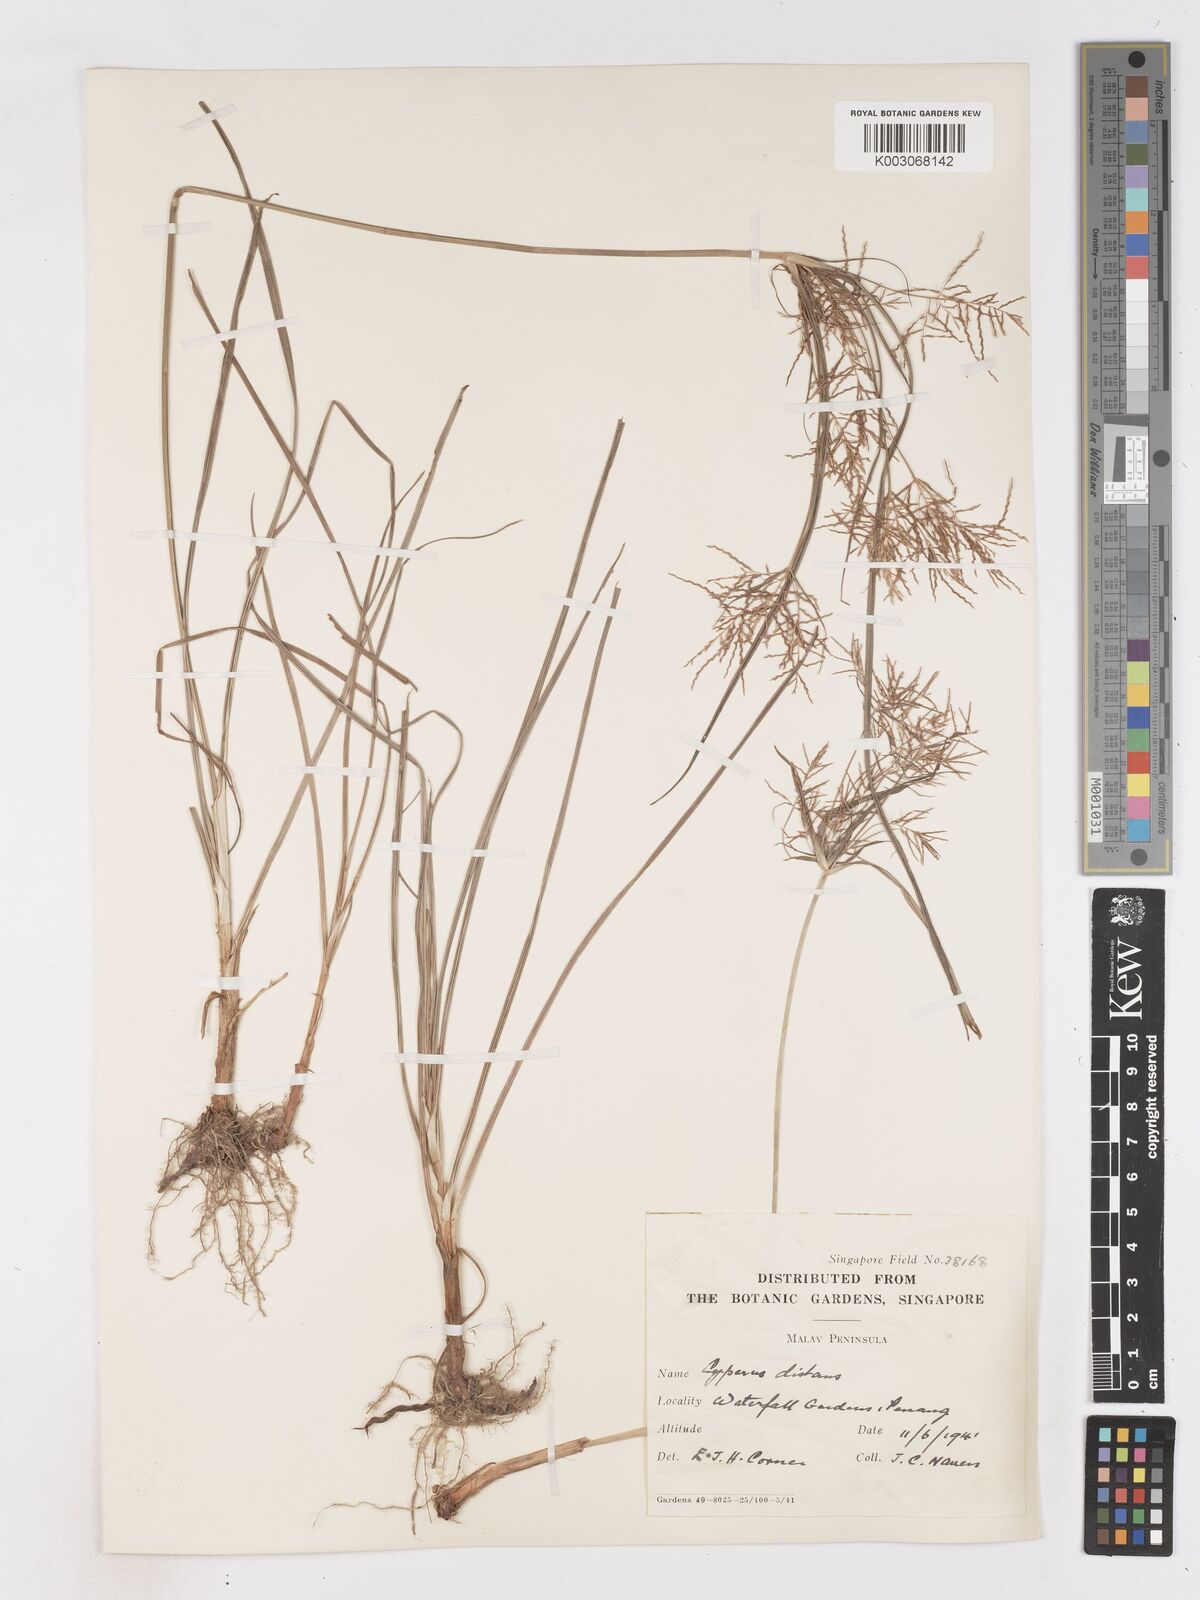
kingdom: Plantae
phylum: Tracheophyta
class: Liliopsida
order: Poales
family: Cyperaceae
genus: Cyperus
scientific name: Cyperus distans
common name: Slender cyperus
